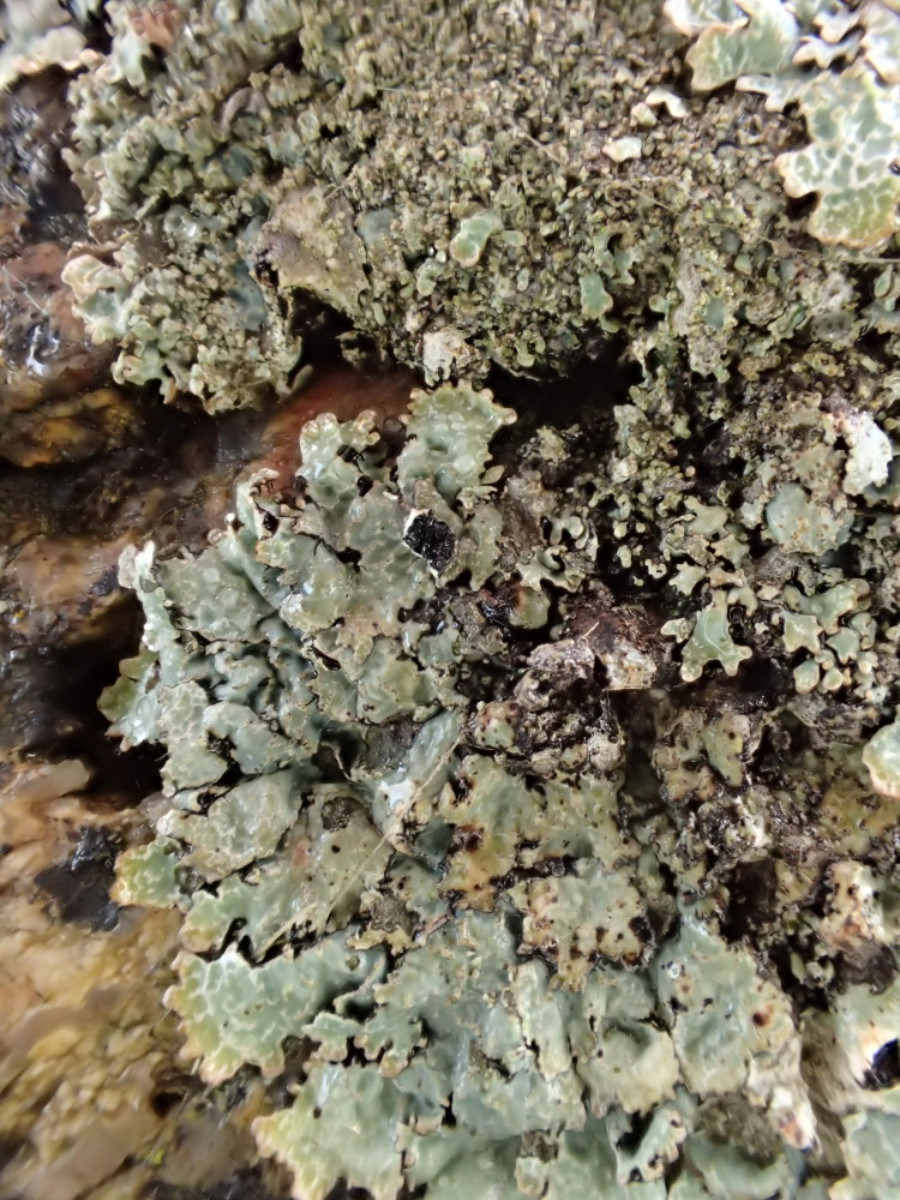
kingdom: Fungi
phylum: Ascomycota
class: Lecanoromycetes
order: Lecanorales
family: Parmeliaceae
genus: Parmelia
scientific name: Parmelia saxatilis
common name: farve-skållav
